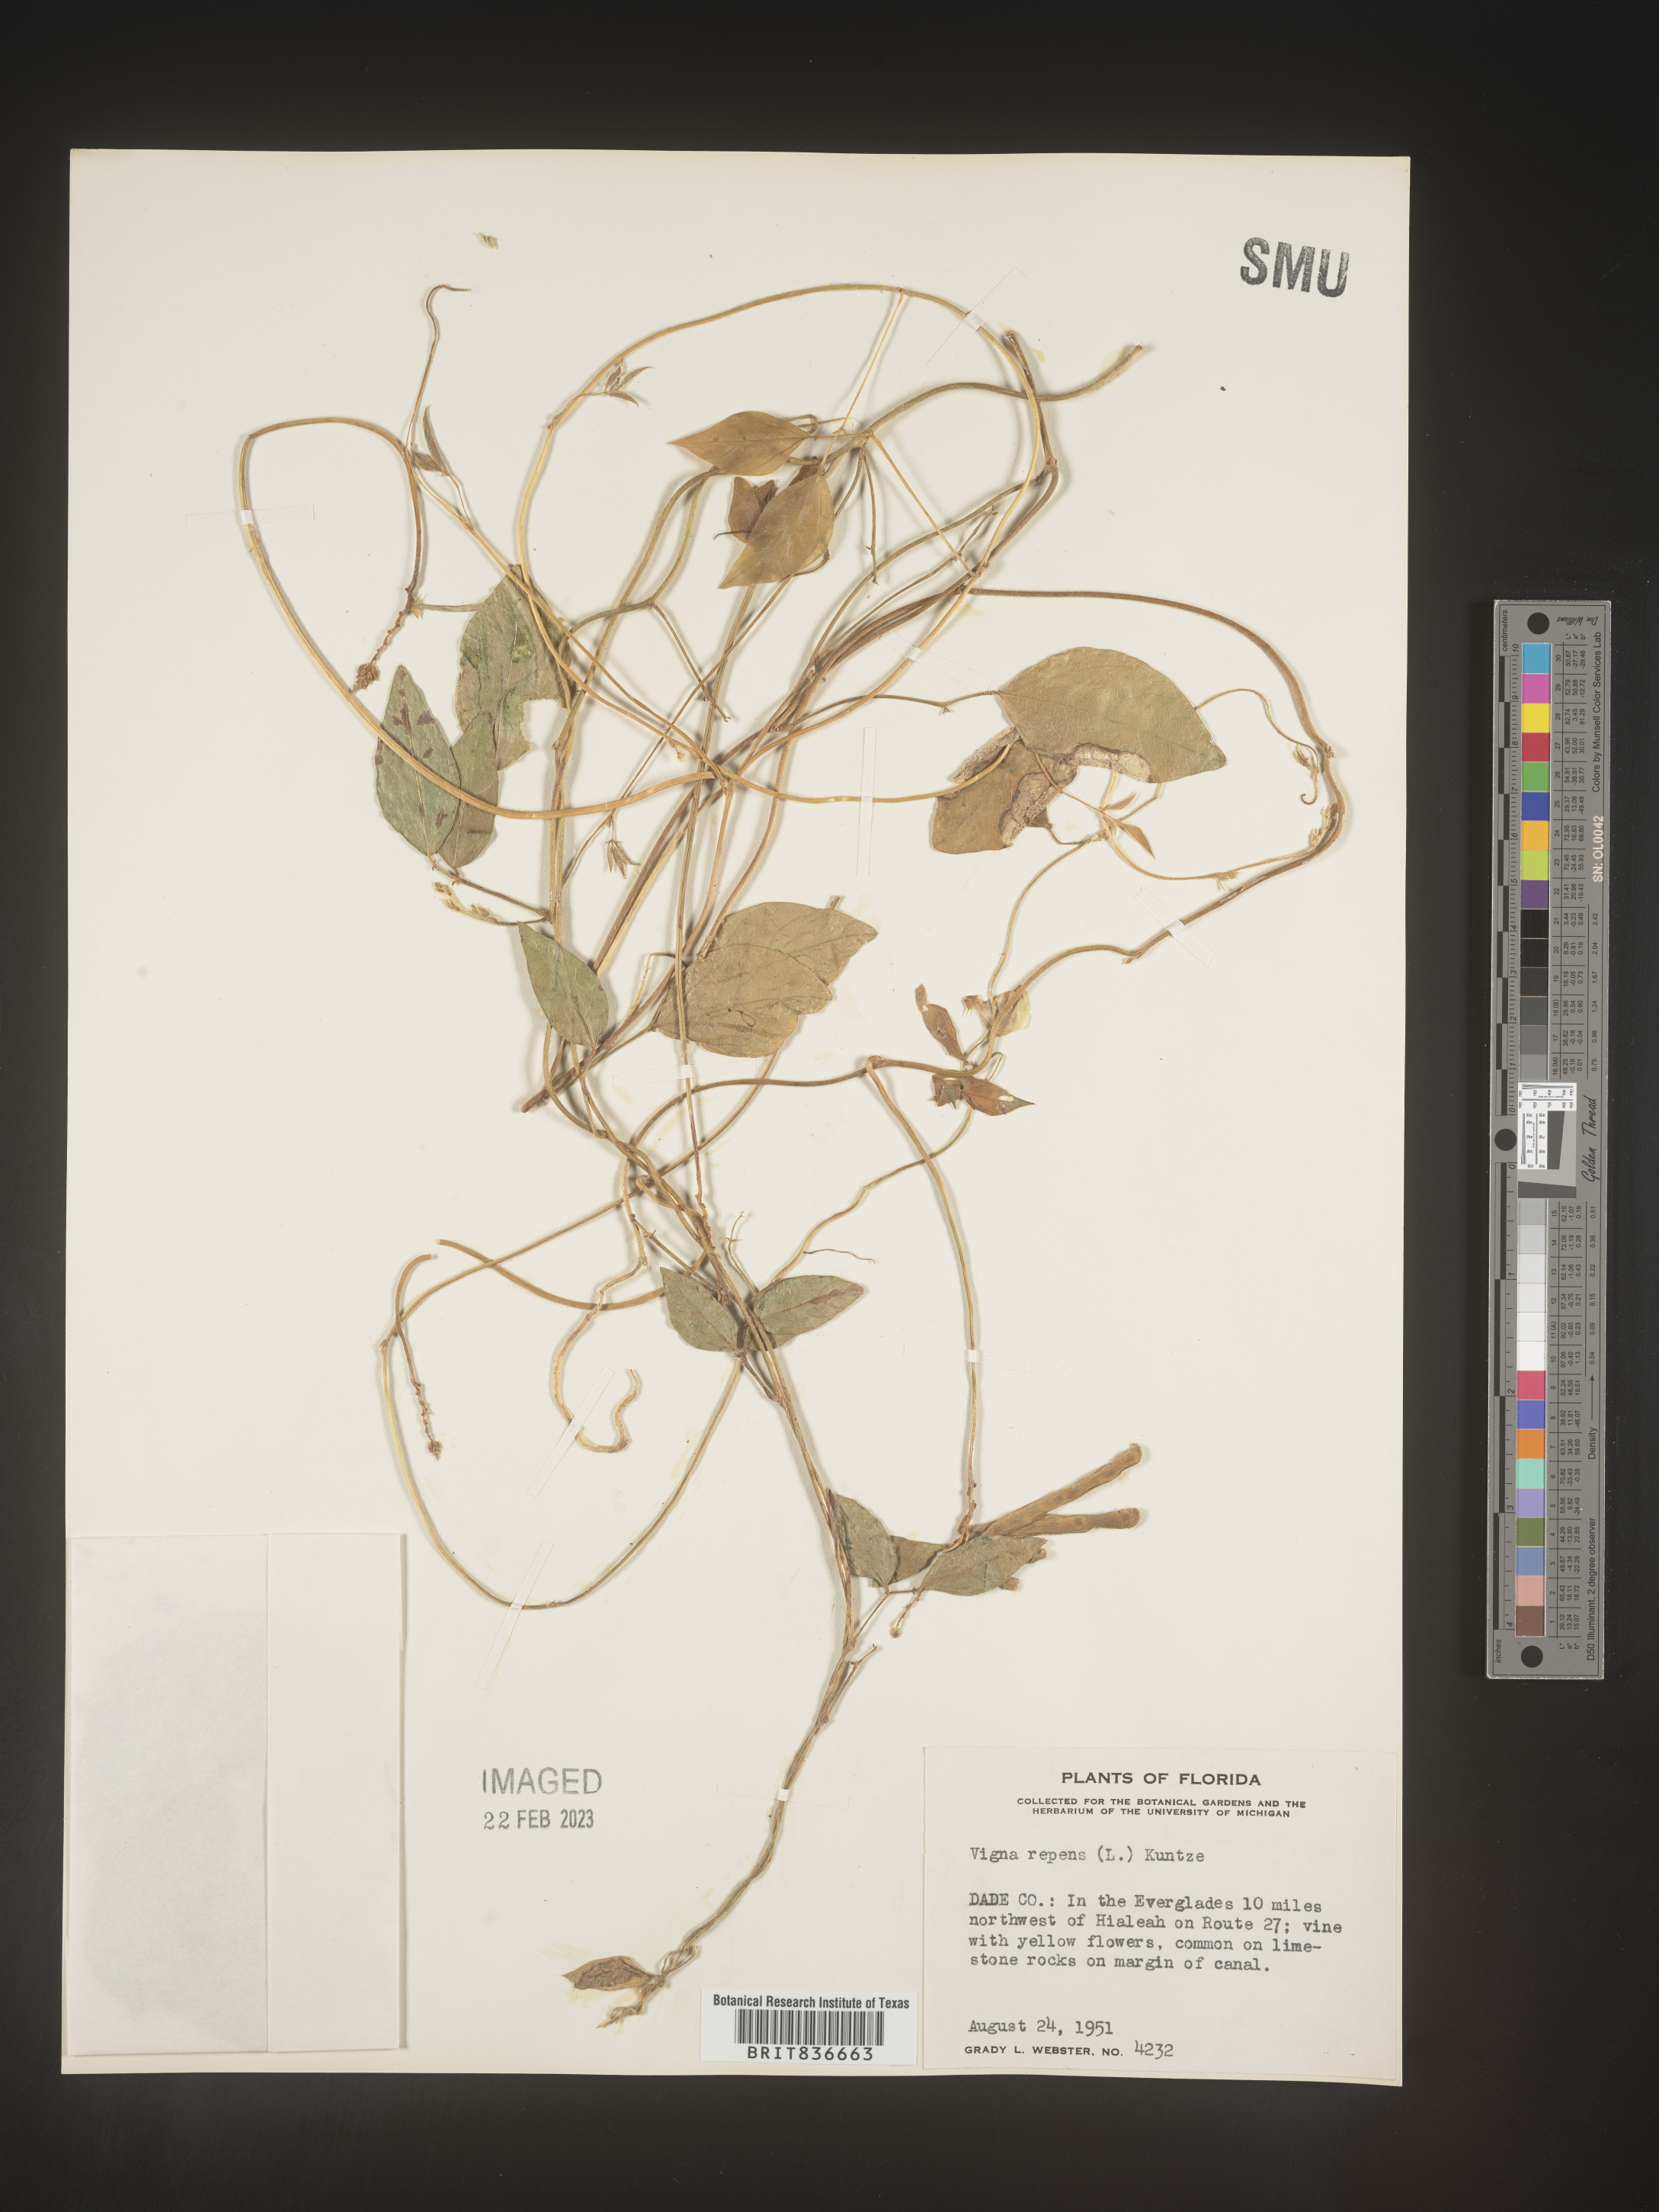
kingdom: Plantae
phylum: Tracheophyta
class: Magnoliopsida
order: Fabales
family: Fabaceae
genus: Vigna
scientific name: Vigna luteola
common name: Hairypod cowpea
